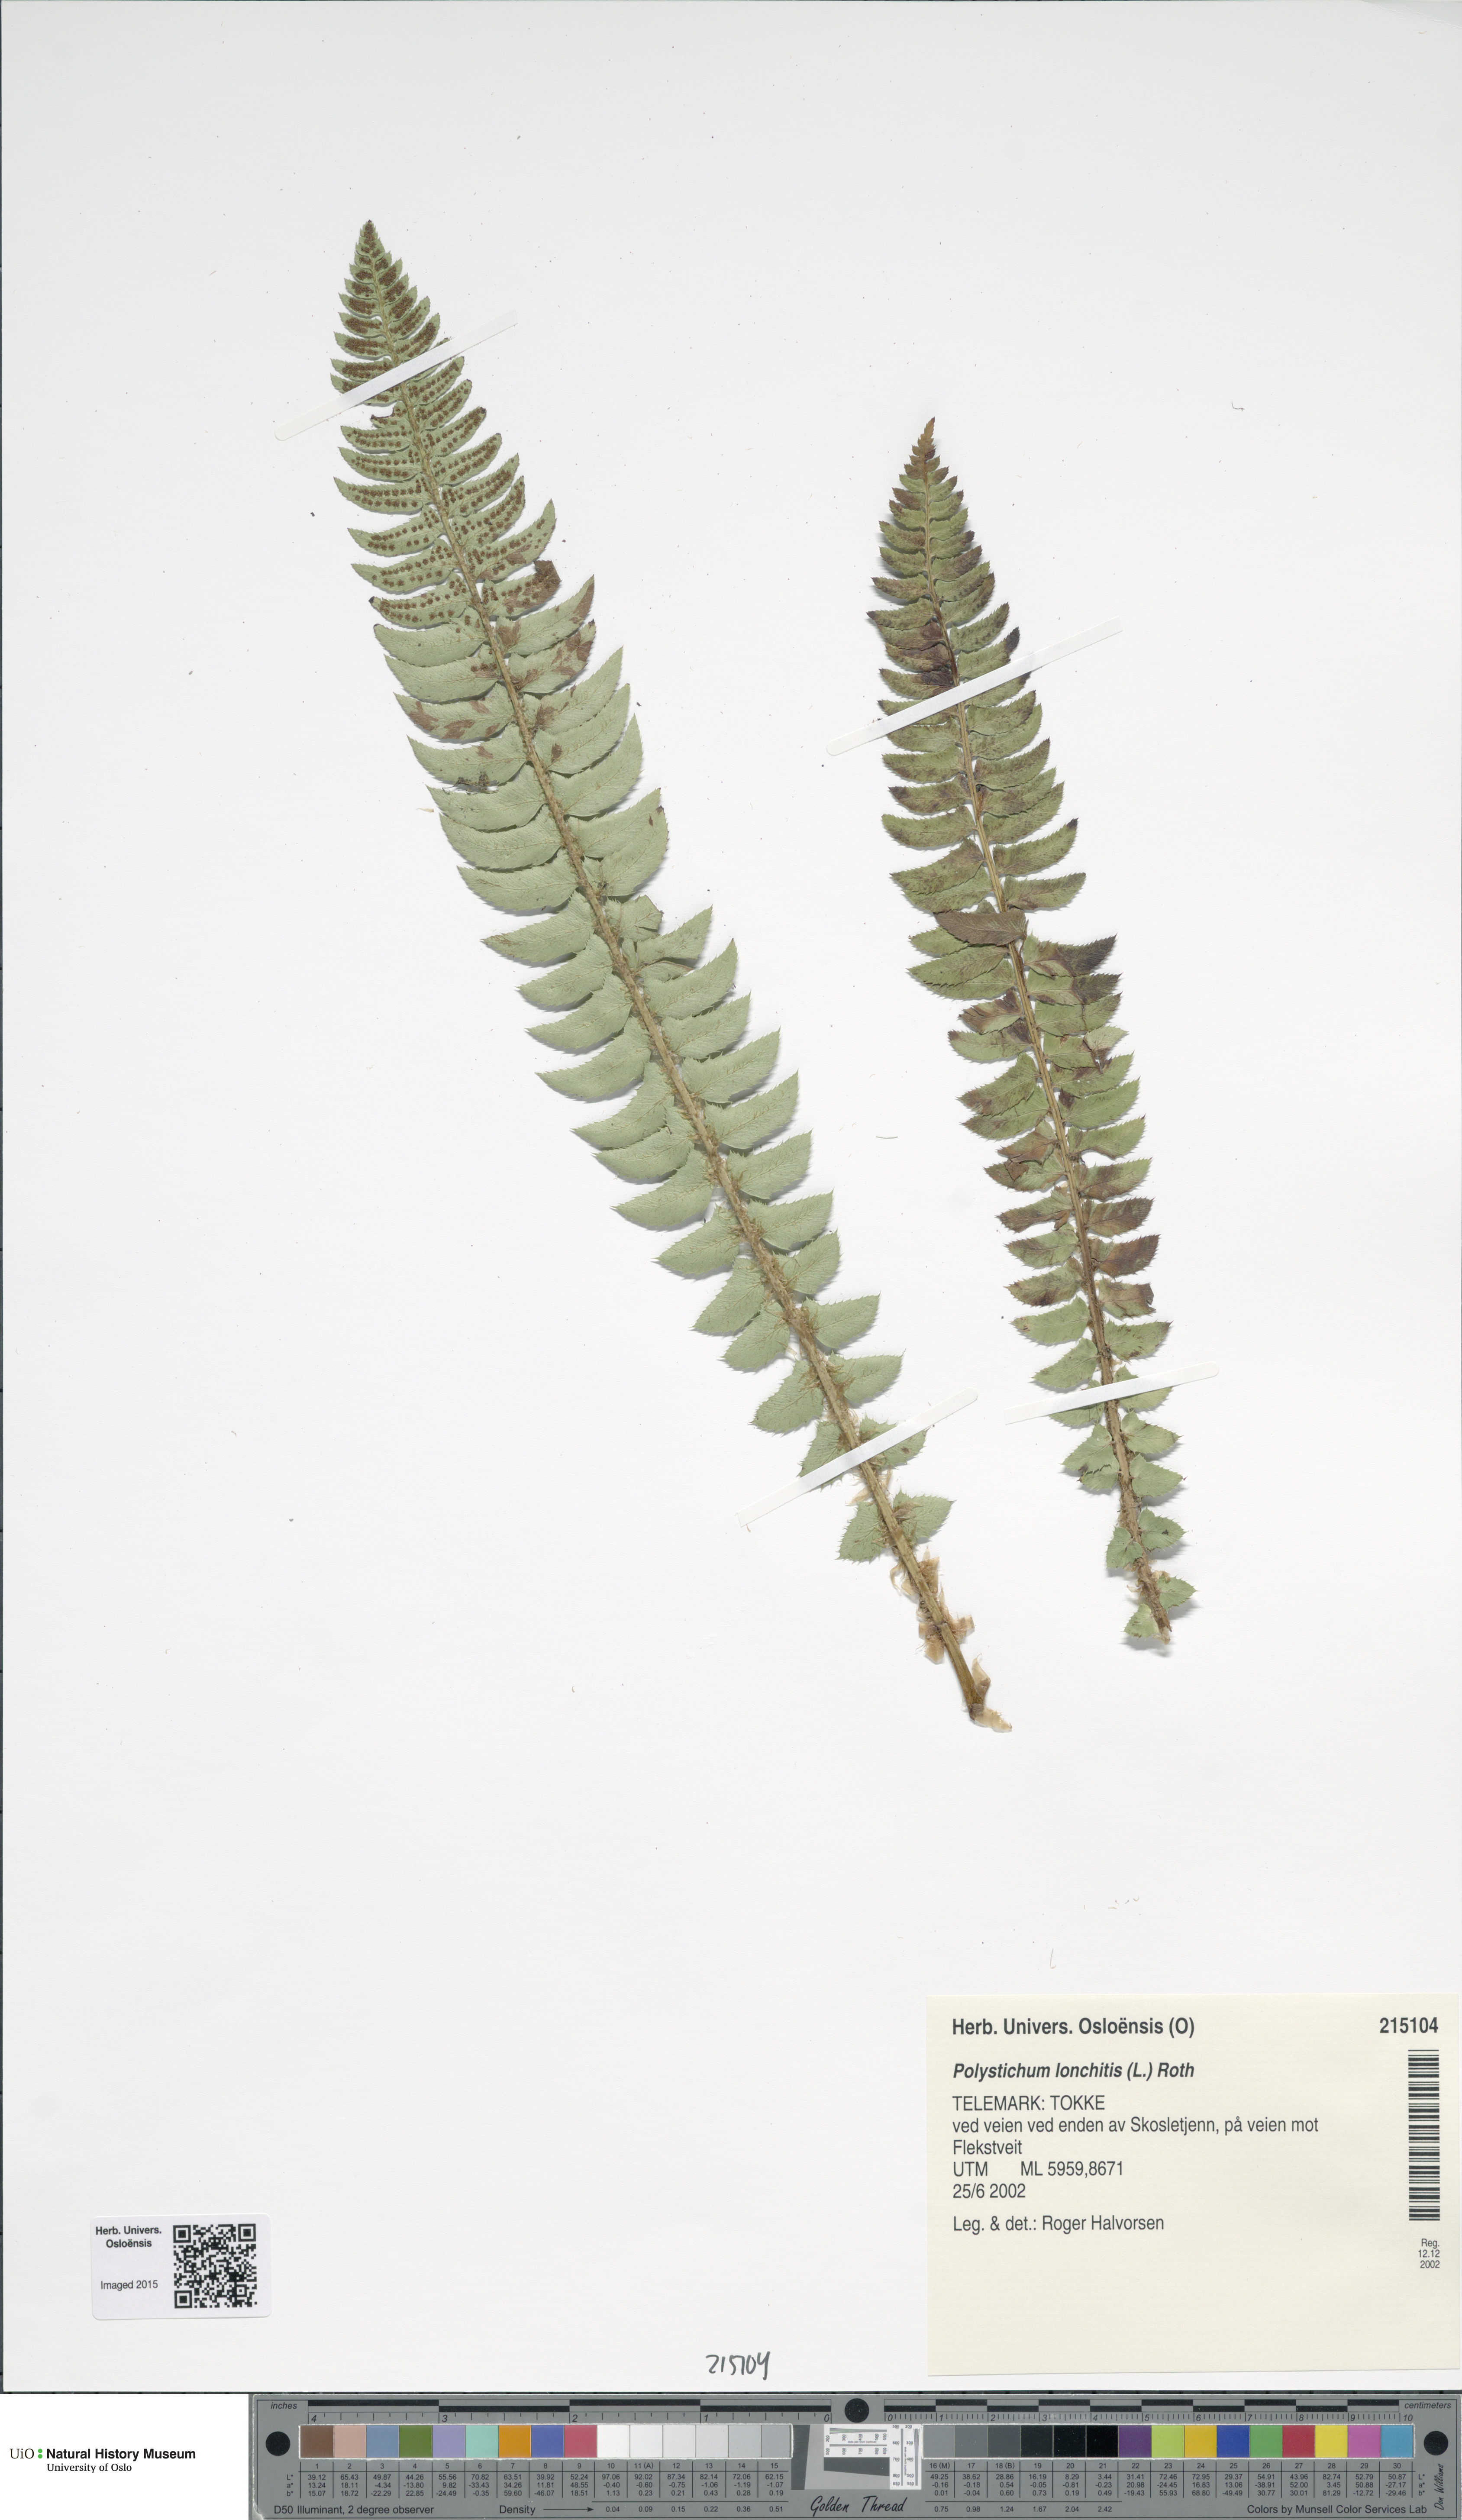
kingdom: Plantae
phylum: Tracheophyta
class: Polypodiopsida
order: Polypodiales
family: Dryopteridaceae
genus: Polystichum
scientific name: Polystichum lonchitis
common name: Holly fern
